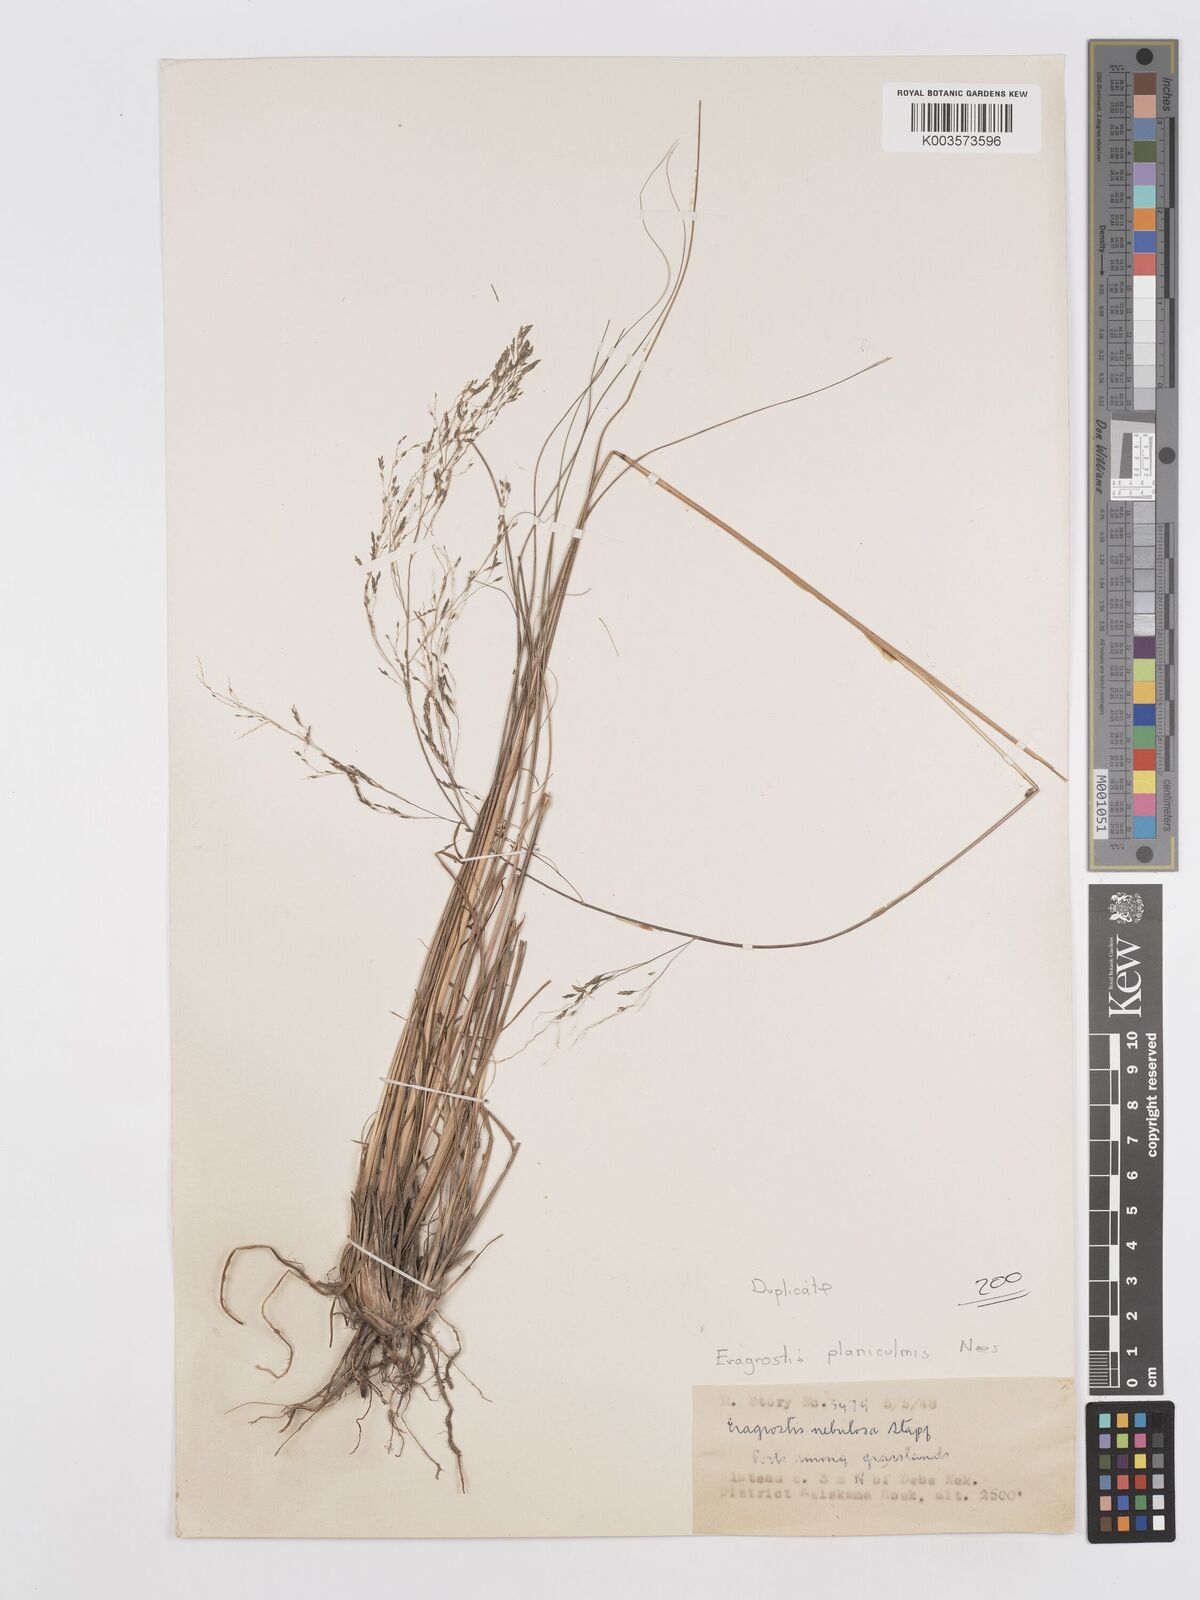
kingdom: Plantae
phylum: Tracheophyta
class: Liliopsida
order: Poales
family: Poaceae
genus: Eragrostis
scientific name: Eragrostis planiculmis
